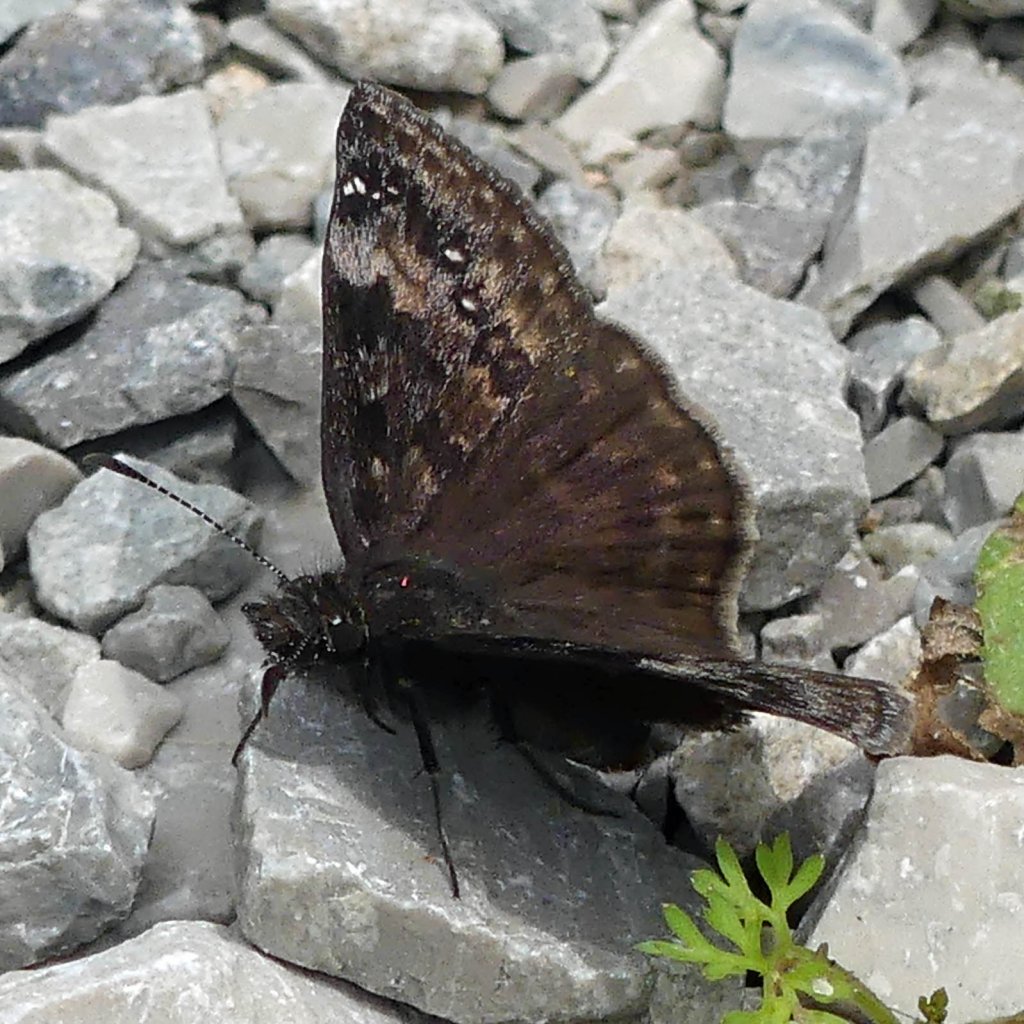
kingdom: Animalia
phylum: Arthropoda
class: Insecta
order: Lepidoptera
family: Hesperiidae
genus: Gesta
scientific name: Gesta
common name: Wild Indigo Duskywing
